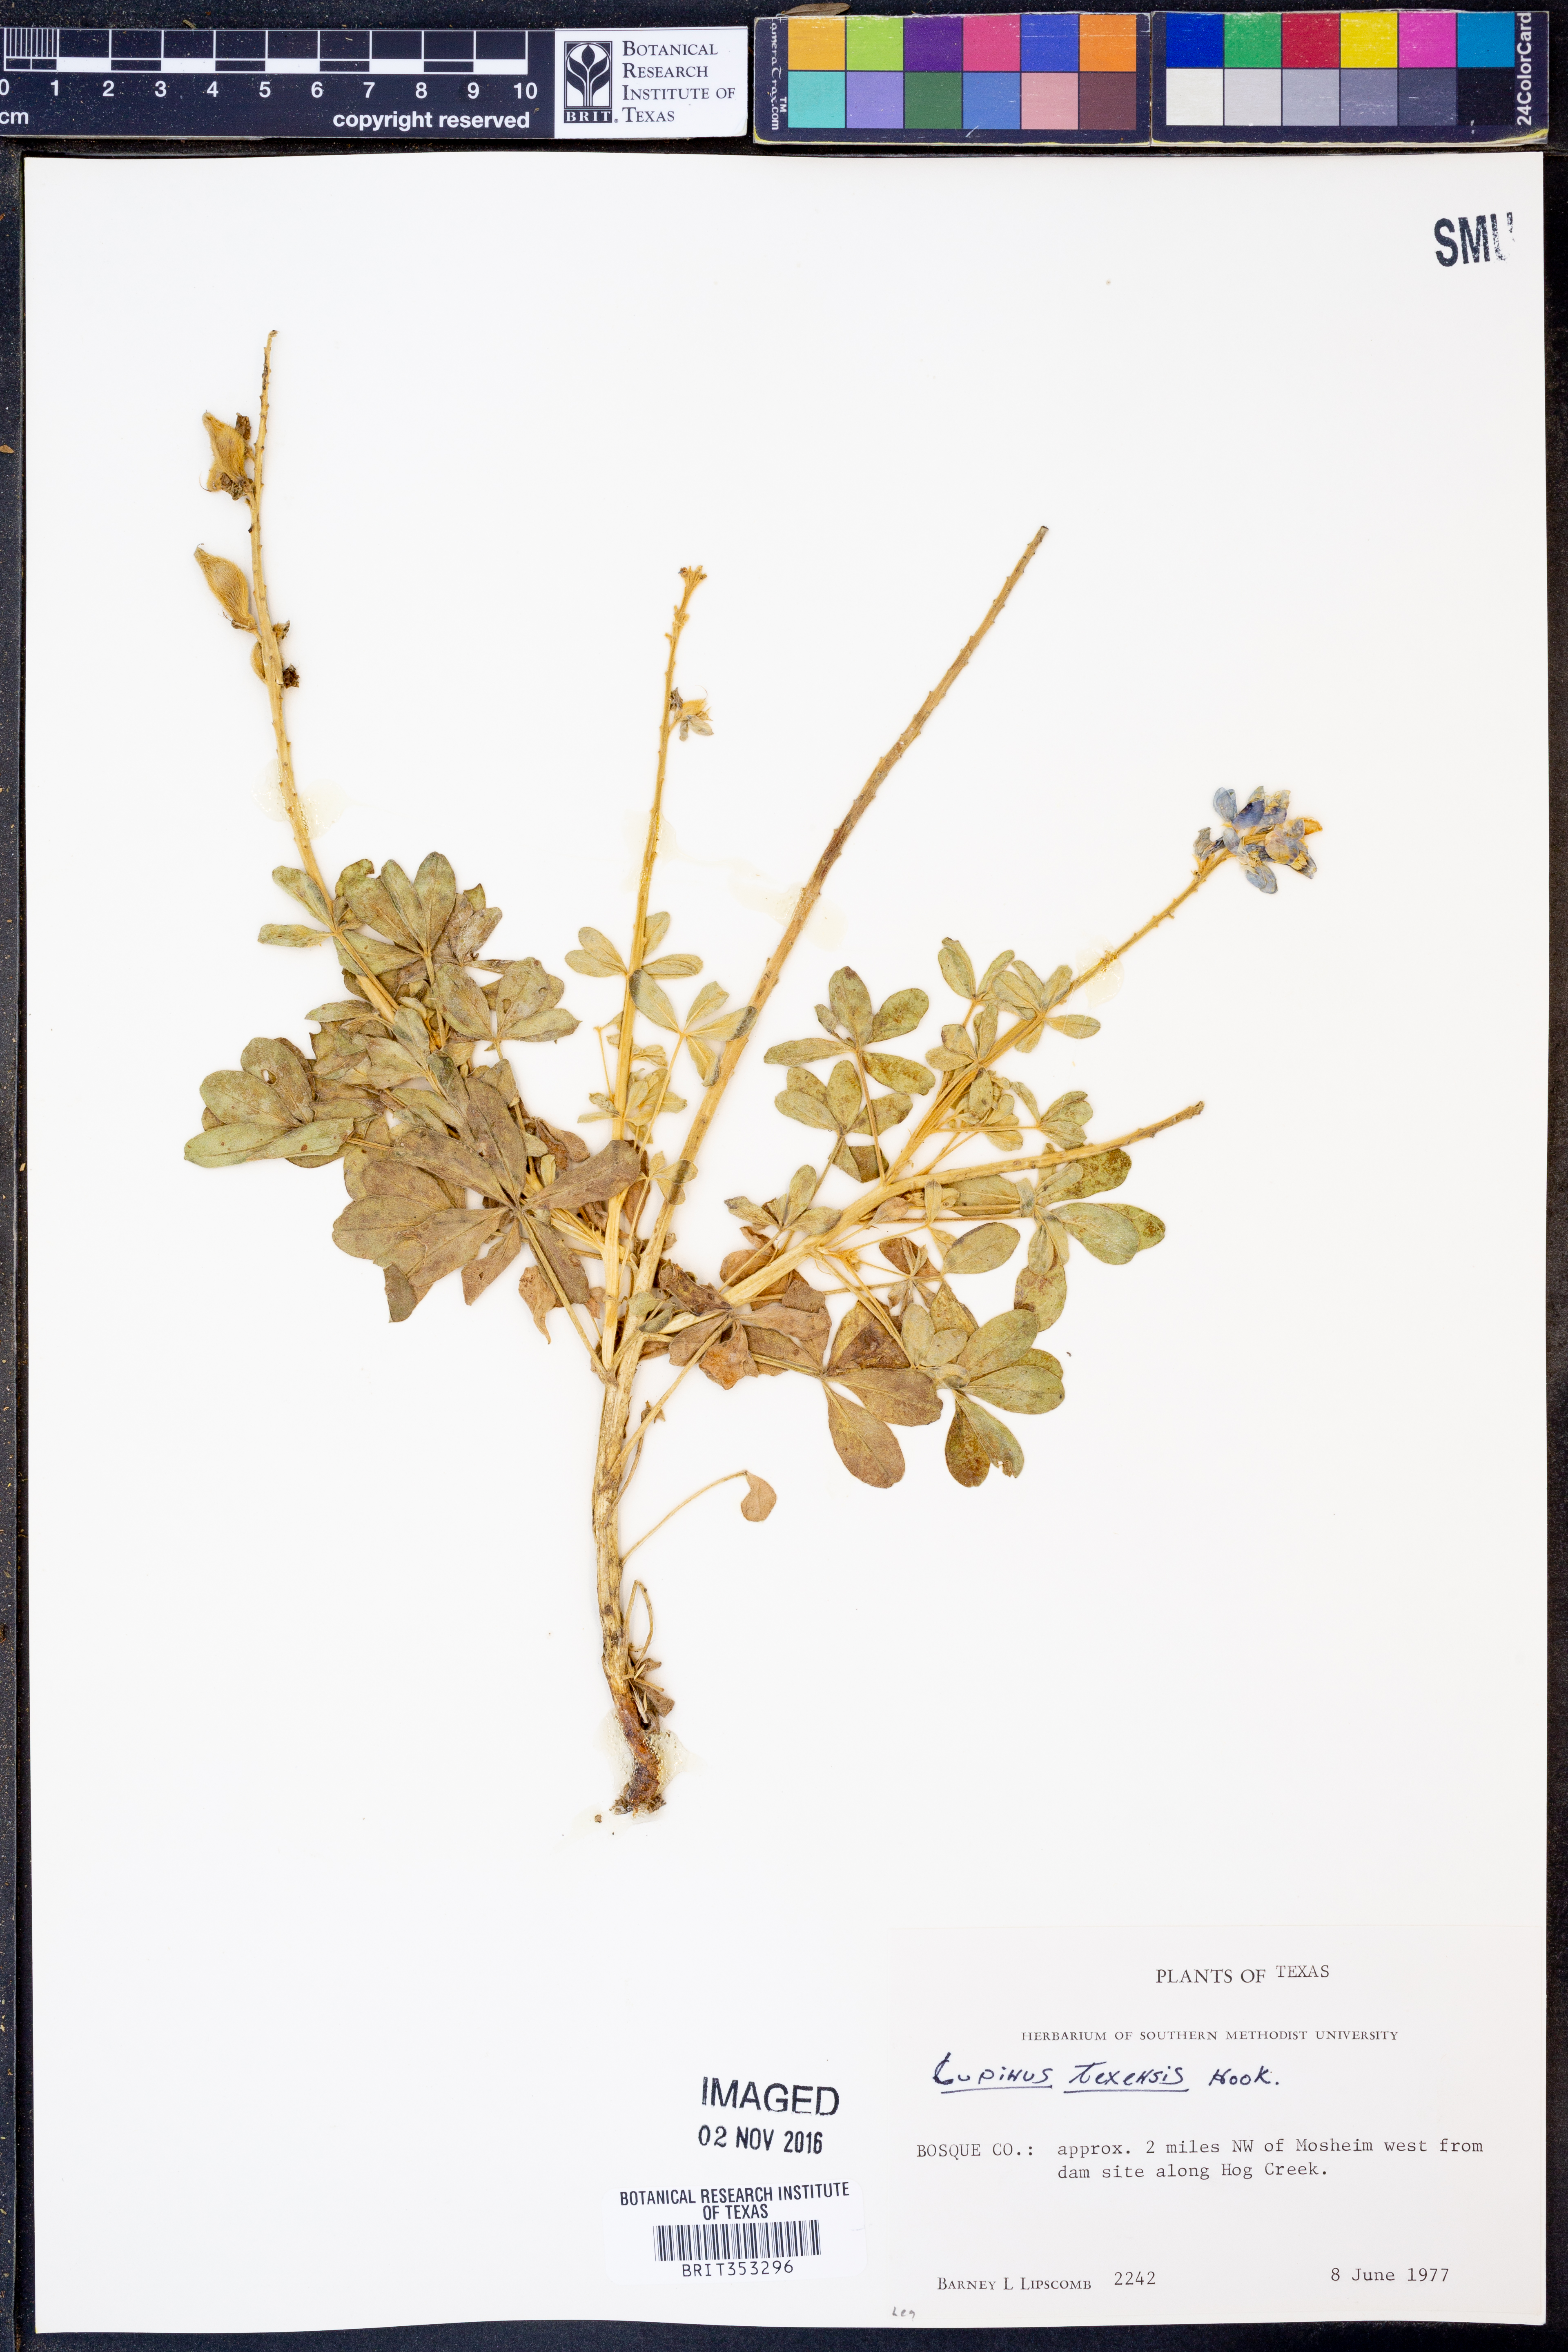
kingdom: Plantae
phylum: Tracheophyta
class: Magnoliopsida
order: Fabales
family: Fabaceae
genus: Lupinus
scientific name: Lupinus texensis
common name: Texas bluebonnet
